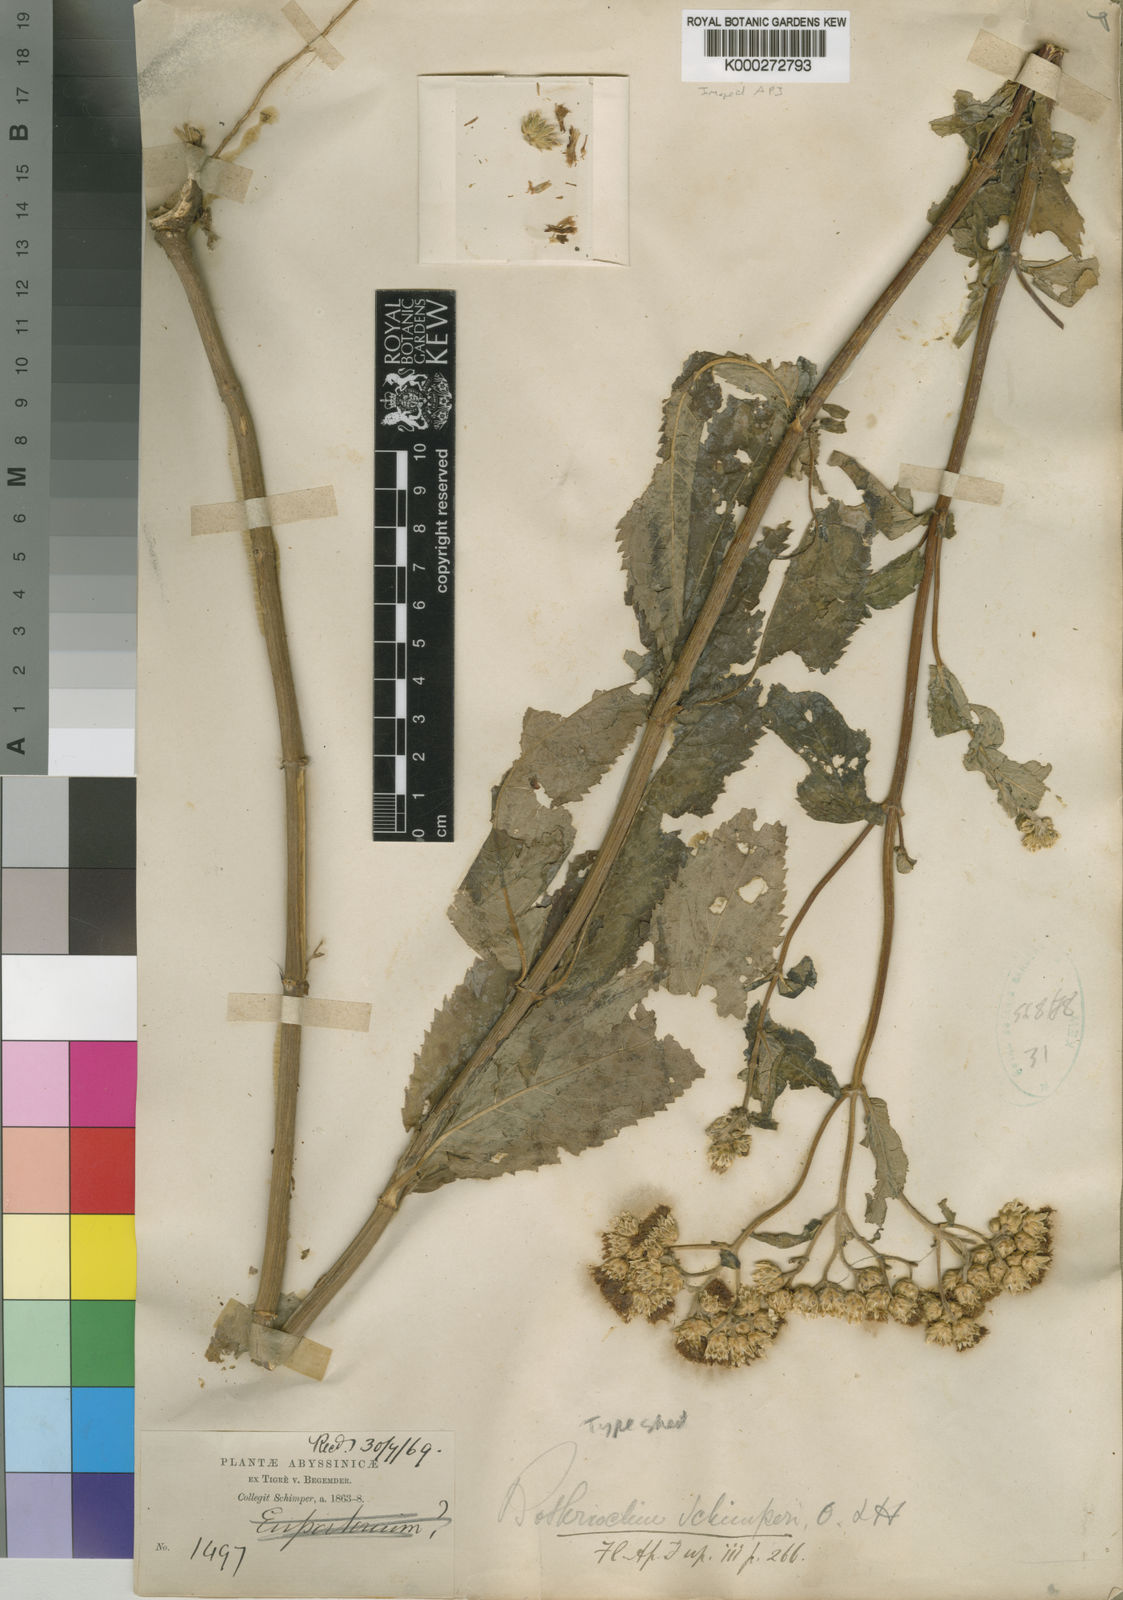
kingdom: Plantae
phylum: Tracheophyta
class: Magnoliopsida
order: Asterales
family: Asteraceae
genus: Bothriocline
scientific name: Bothriocline schimperi
